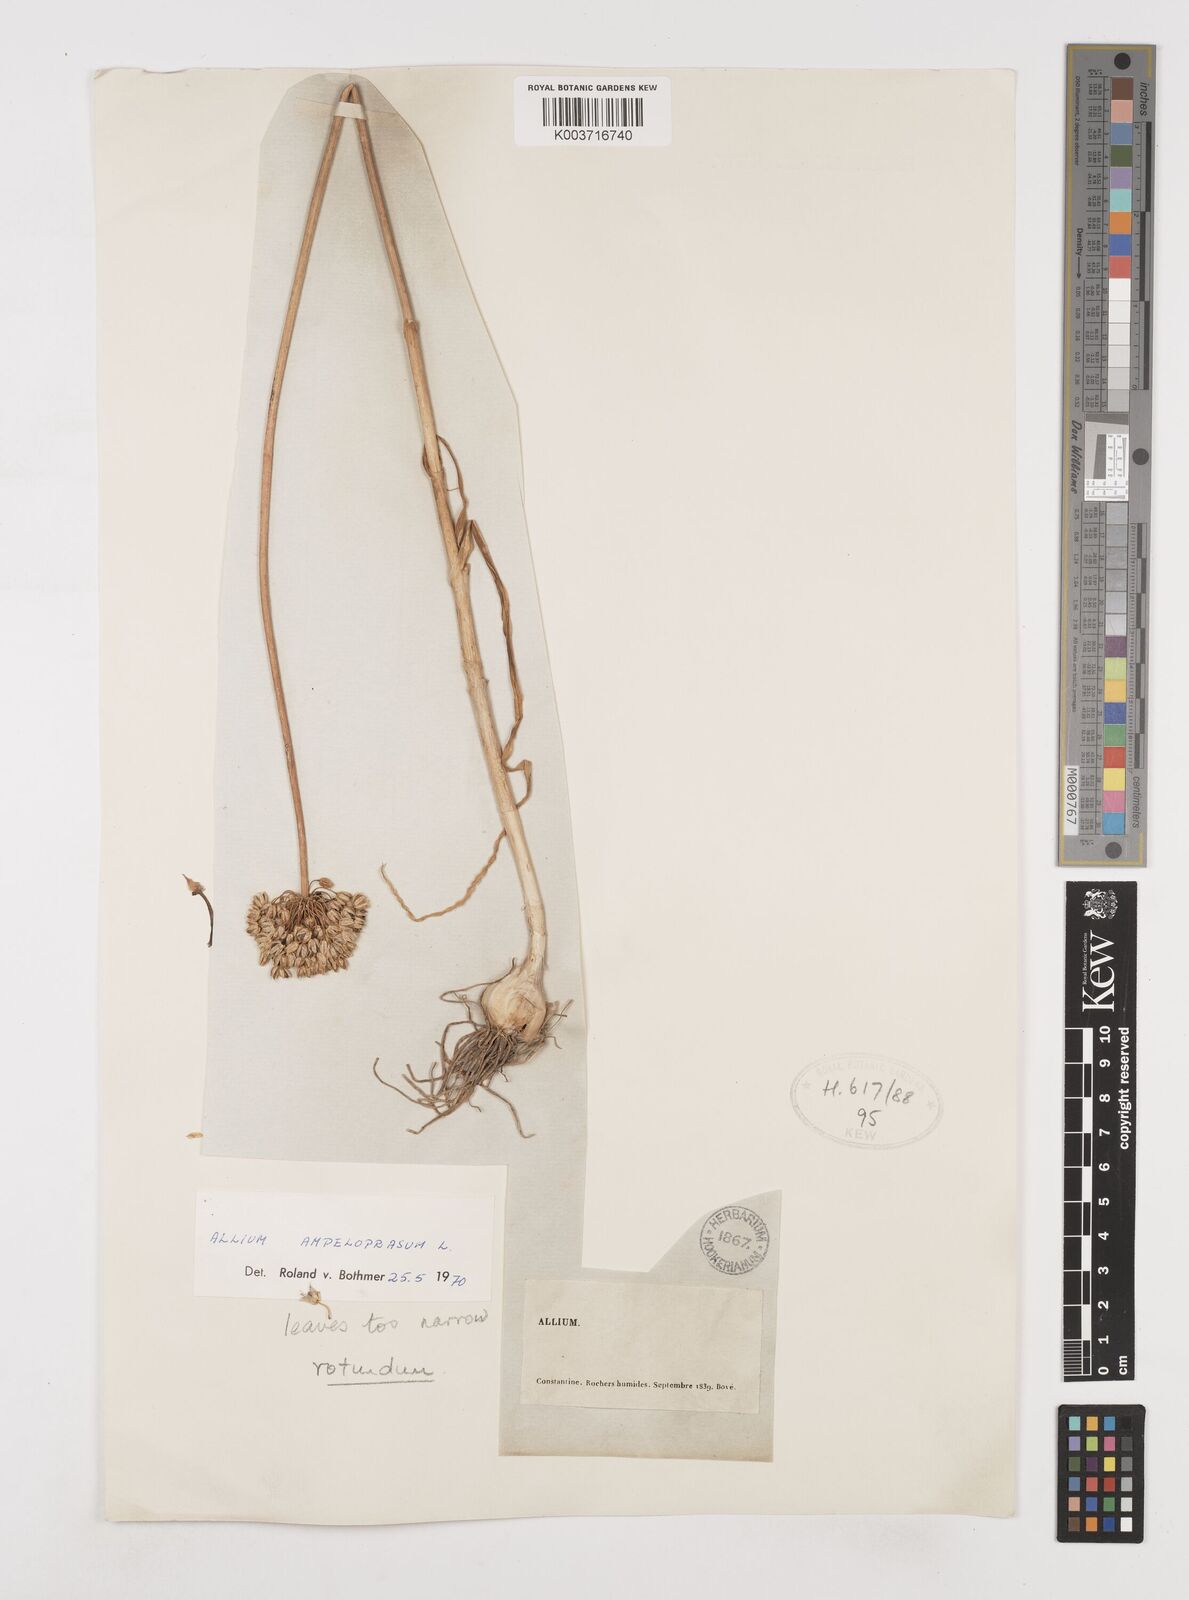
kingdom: Plantae
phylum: Tracheophyta
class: Liliopsida
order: Asparagales
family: Amaryllidaceae
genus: Allium
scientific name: Allium rotundum
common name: Sand leek
